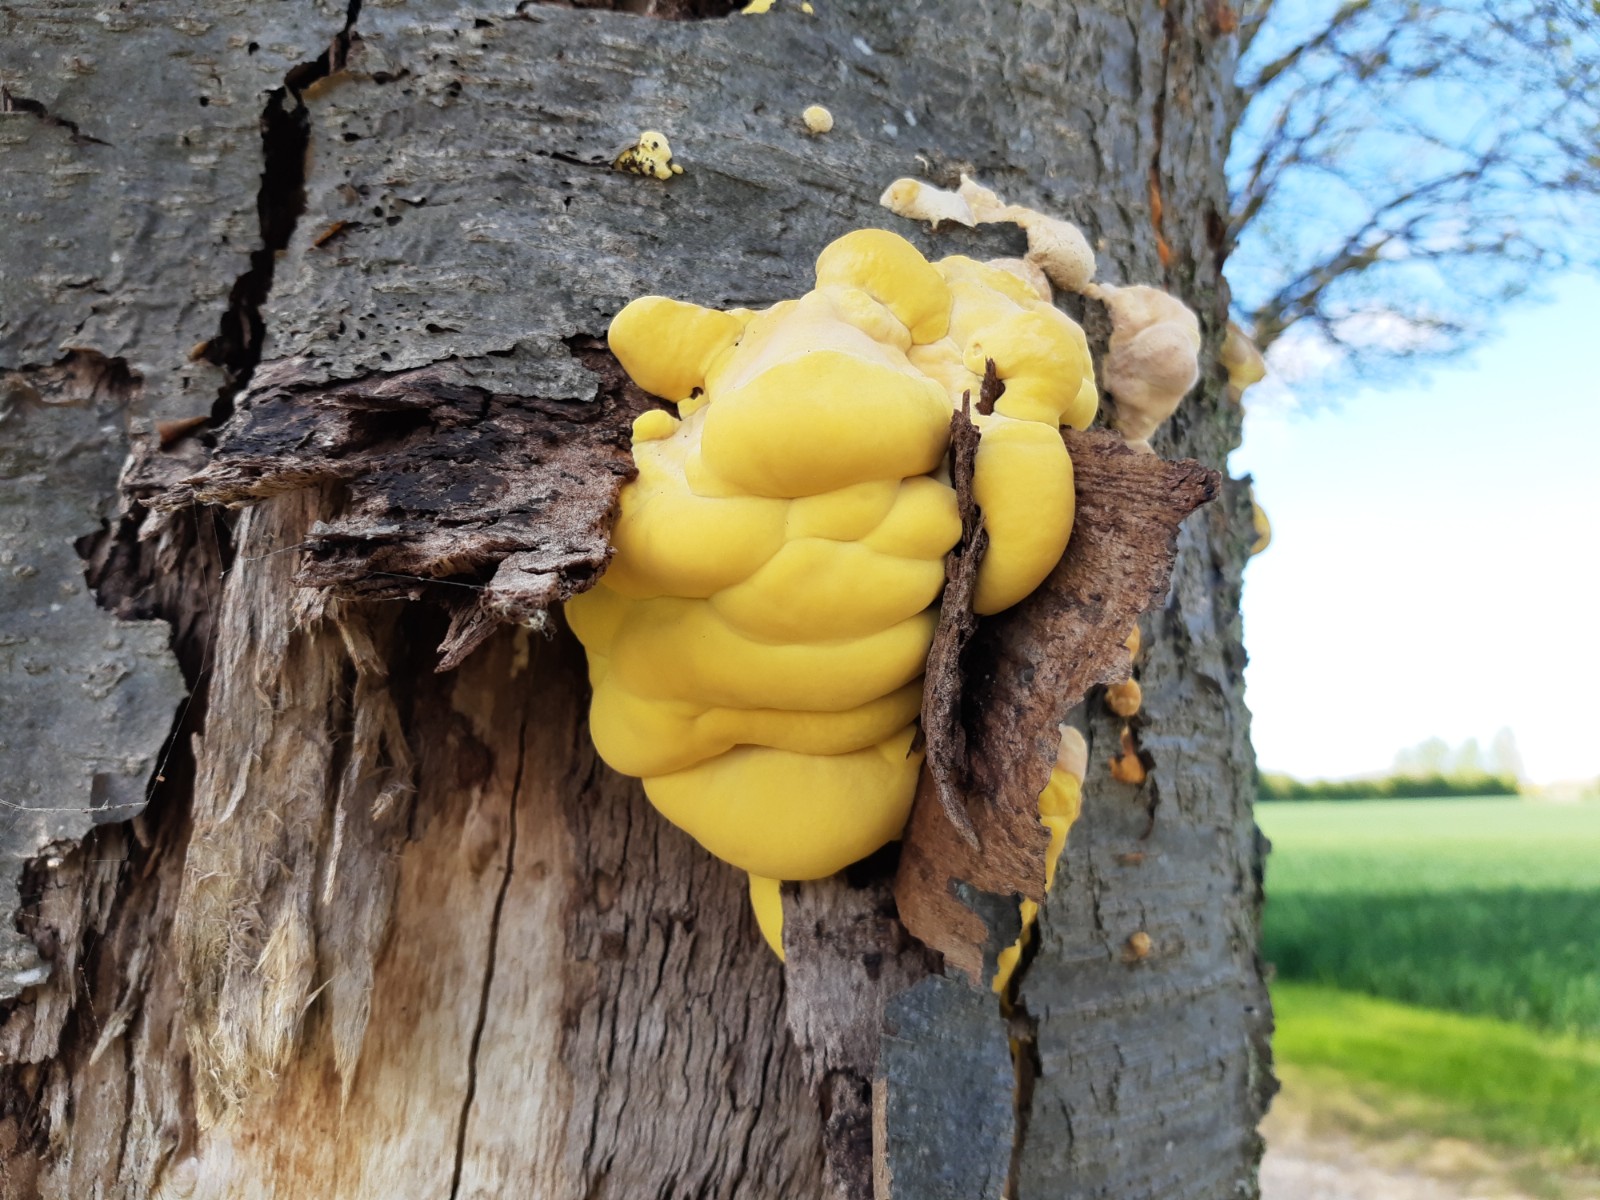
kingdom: Fungi
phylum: Basidiomycota
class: Agaricomycetes
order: Polyporales
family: Laetiporaceae
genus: Laetiporus
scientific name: Laetiporus sulphureus
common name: svovlporesvamp
